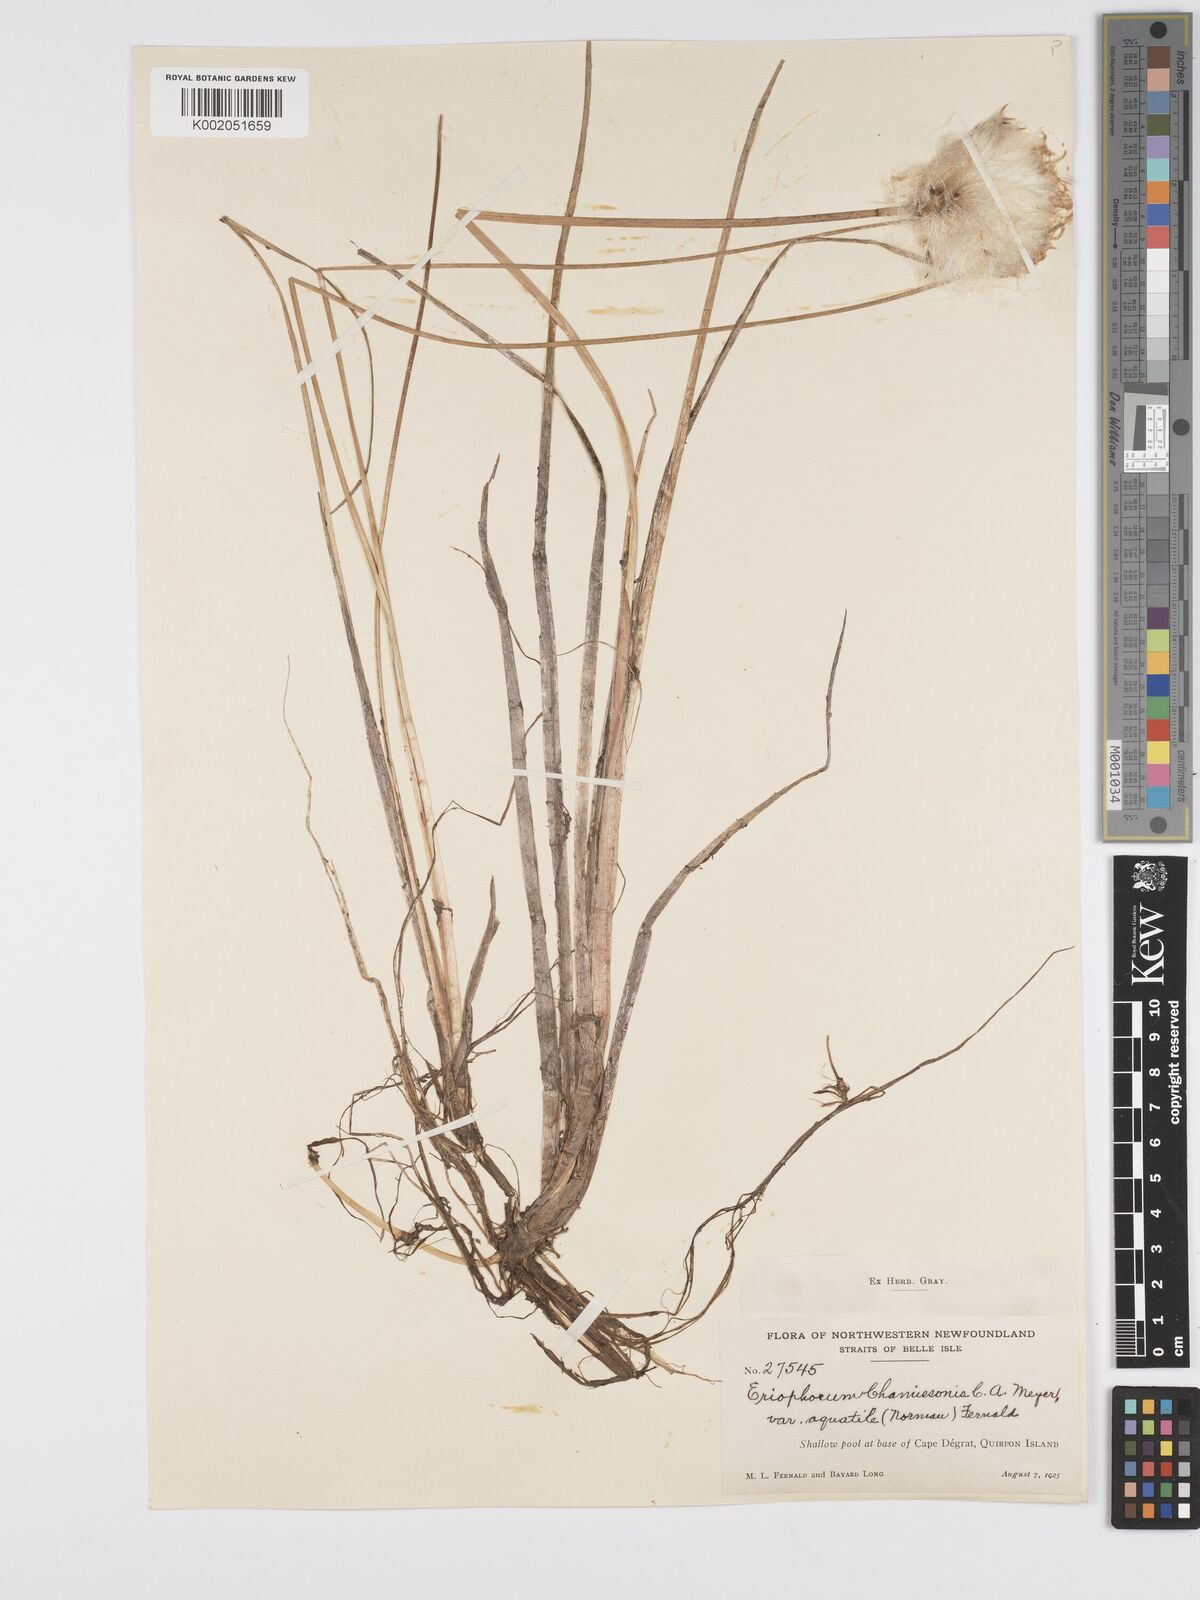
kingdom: Plantae
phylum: Tracheophyta
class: Liliopsida
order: Poales
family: Cyperaceae
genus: Eriophorum
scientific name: Eriophorum chamissonis
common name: Chamisso's cottongrass
